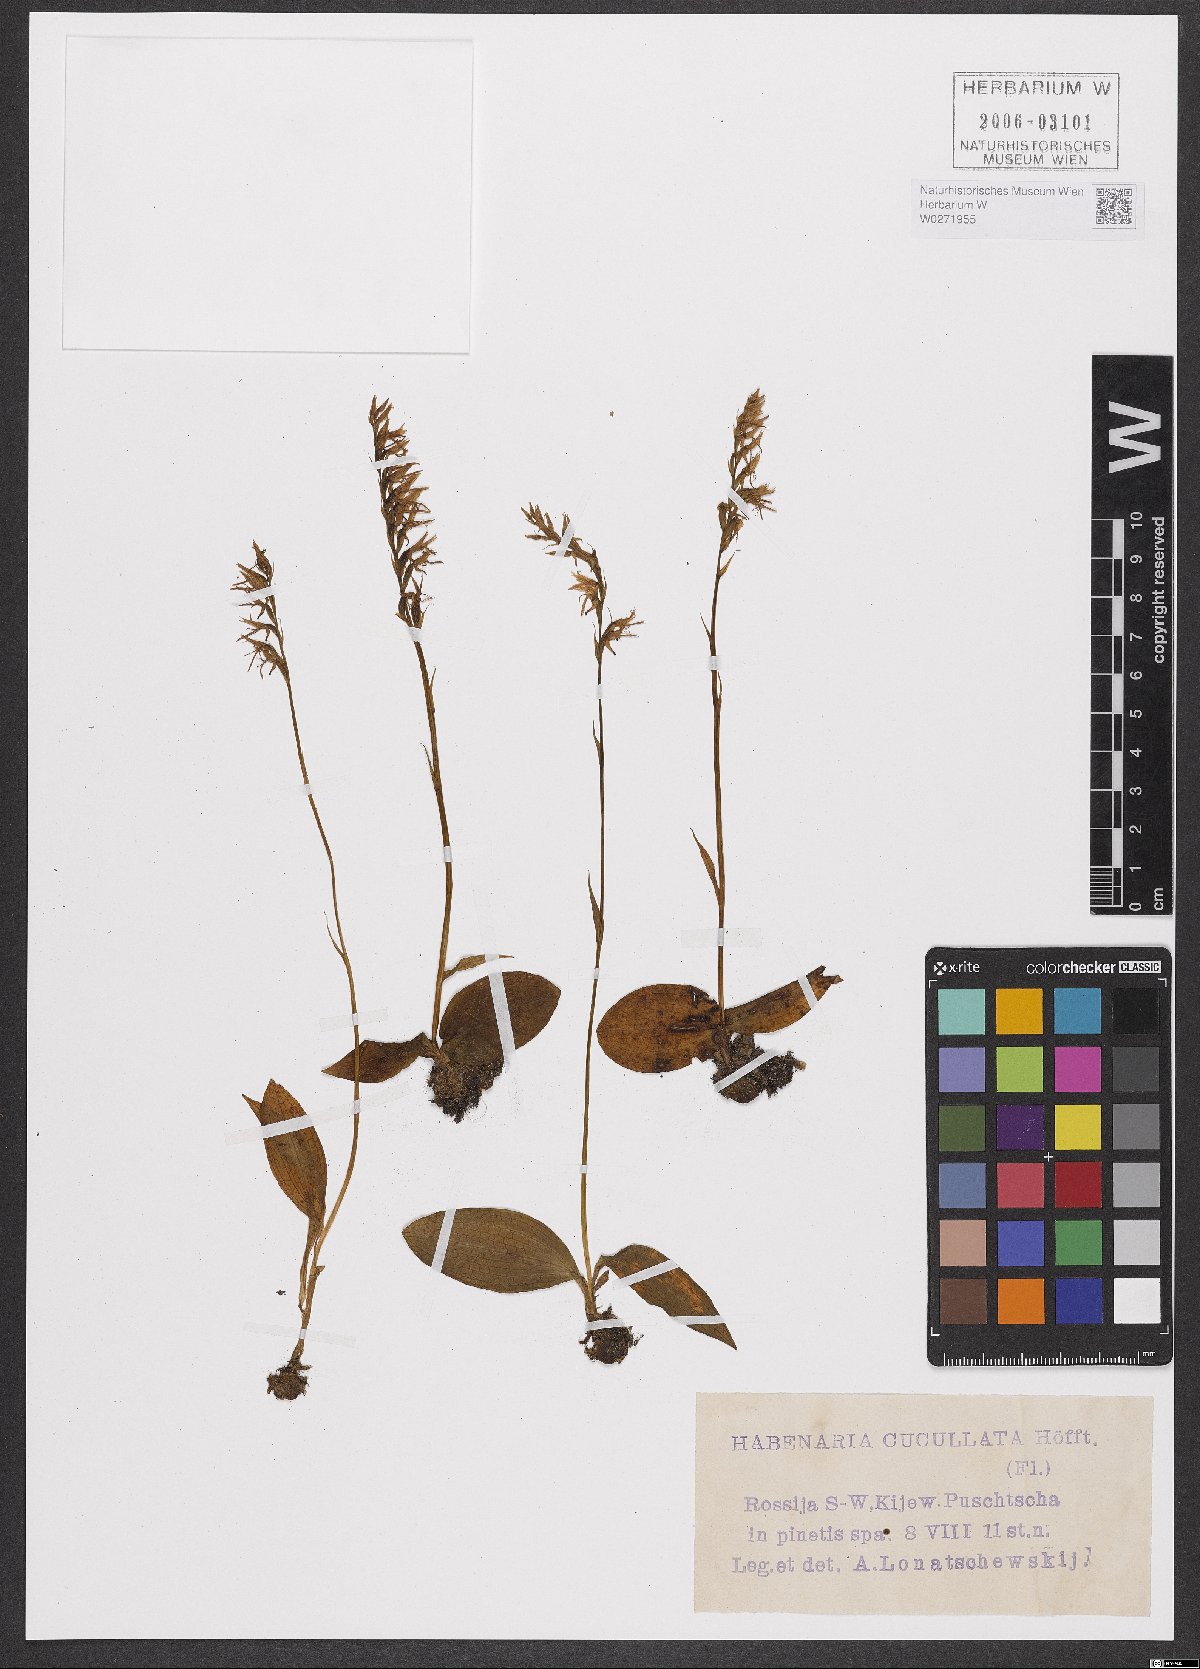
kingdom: Plantae
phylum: Tracheophyta
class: Liliopsida
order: Asparagales
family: Orchidaceae
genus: Hemipilia
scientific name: Hemipilia cucullata
